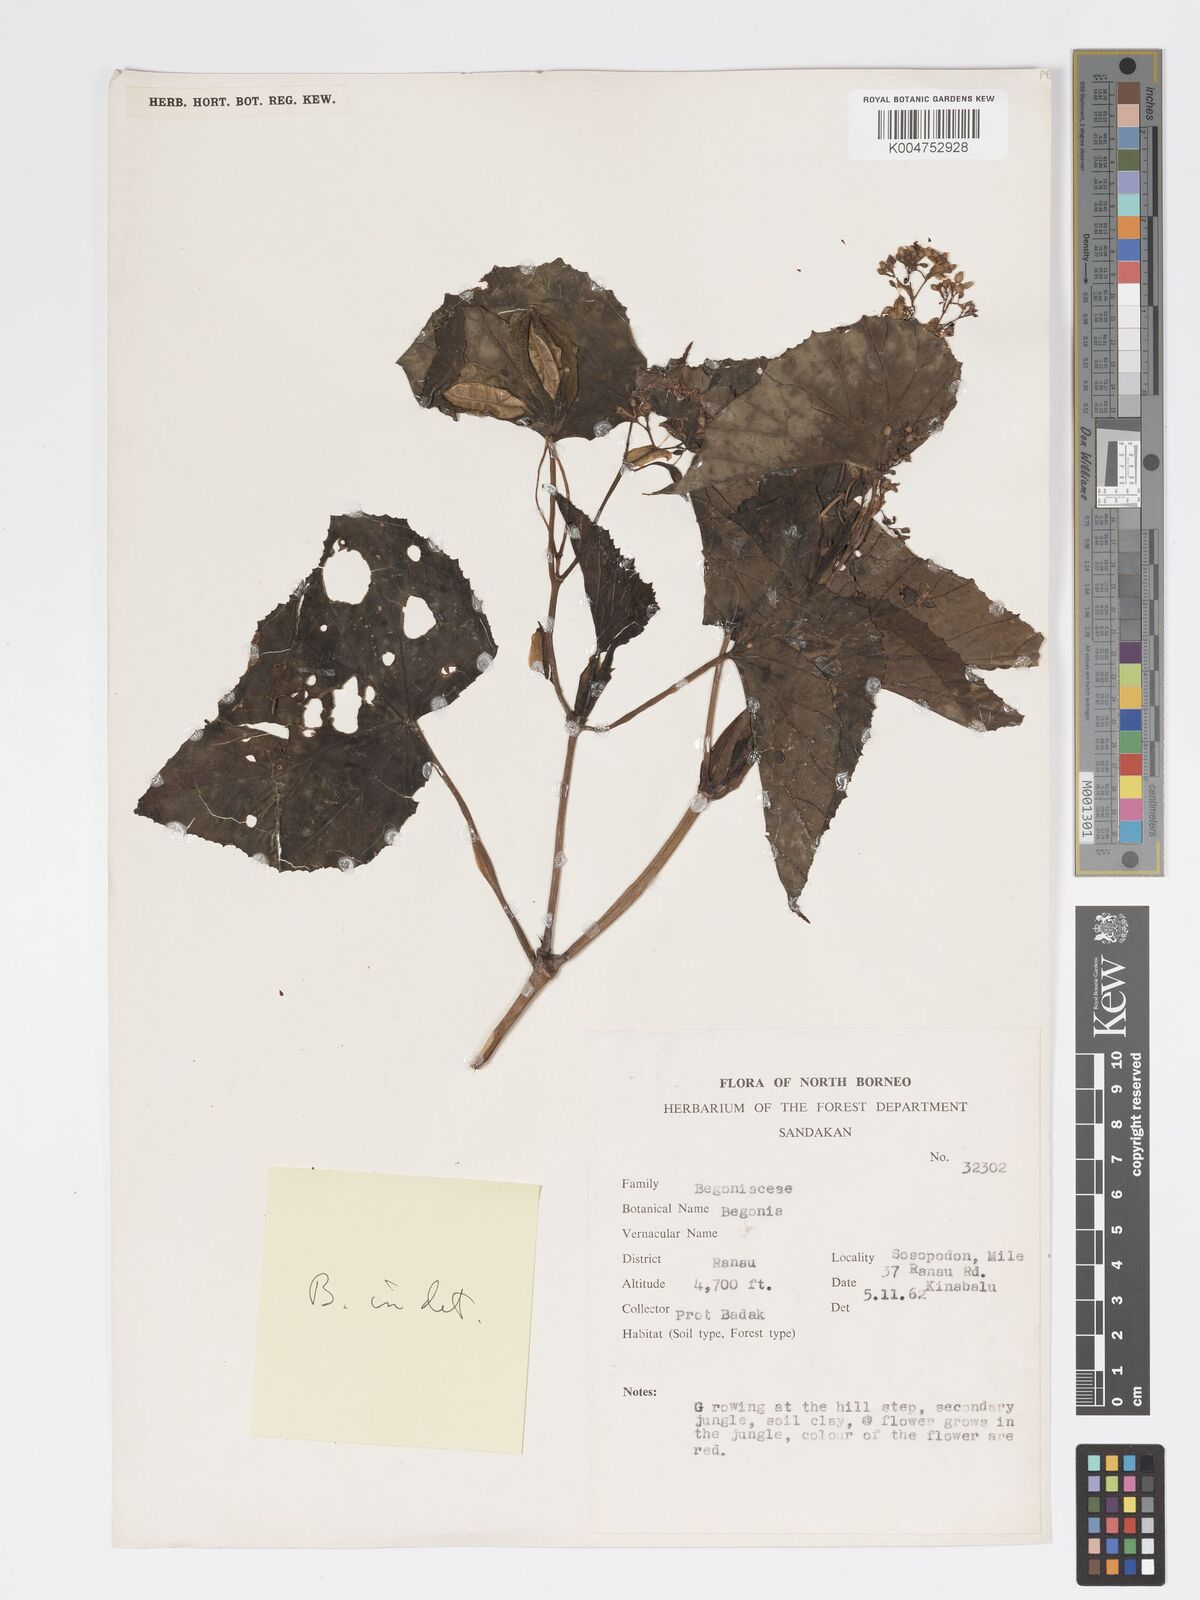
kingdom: Plantae
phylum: Tracheophyta
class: Magnoliopsida
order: Cucurbitales
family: Begoniaceae
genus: Begonia
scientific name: Begonia
